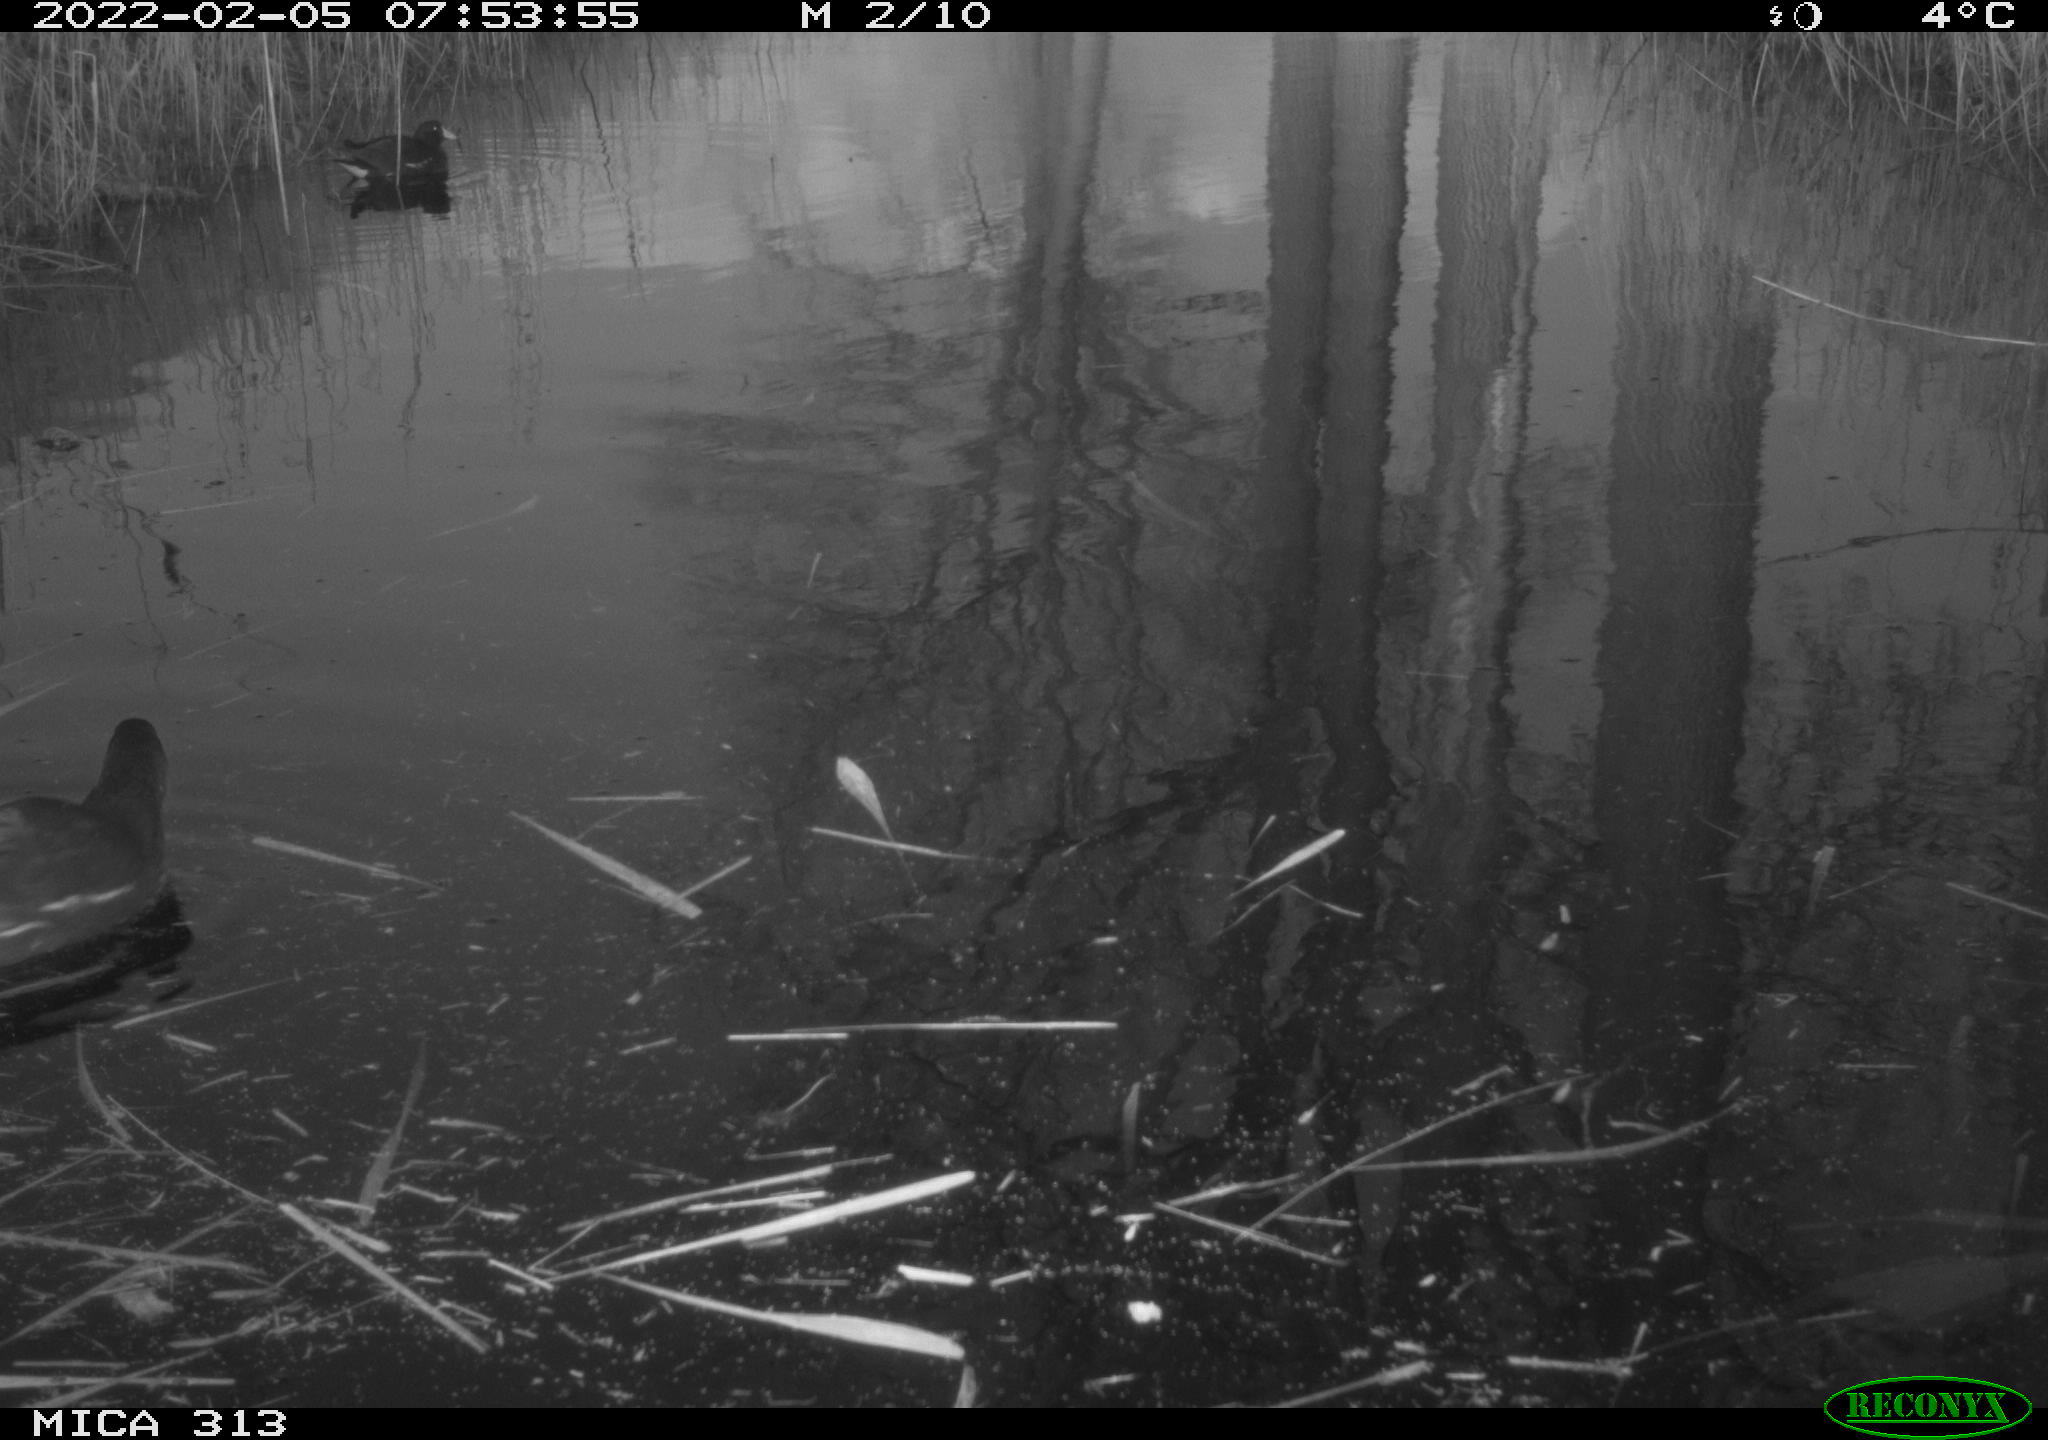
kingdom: Animalia
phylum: Chordata
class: Aves
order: Gruiformes
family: Rallidae
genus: Gallinula
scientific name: Gallinula chloropus
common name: Common moorhen
